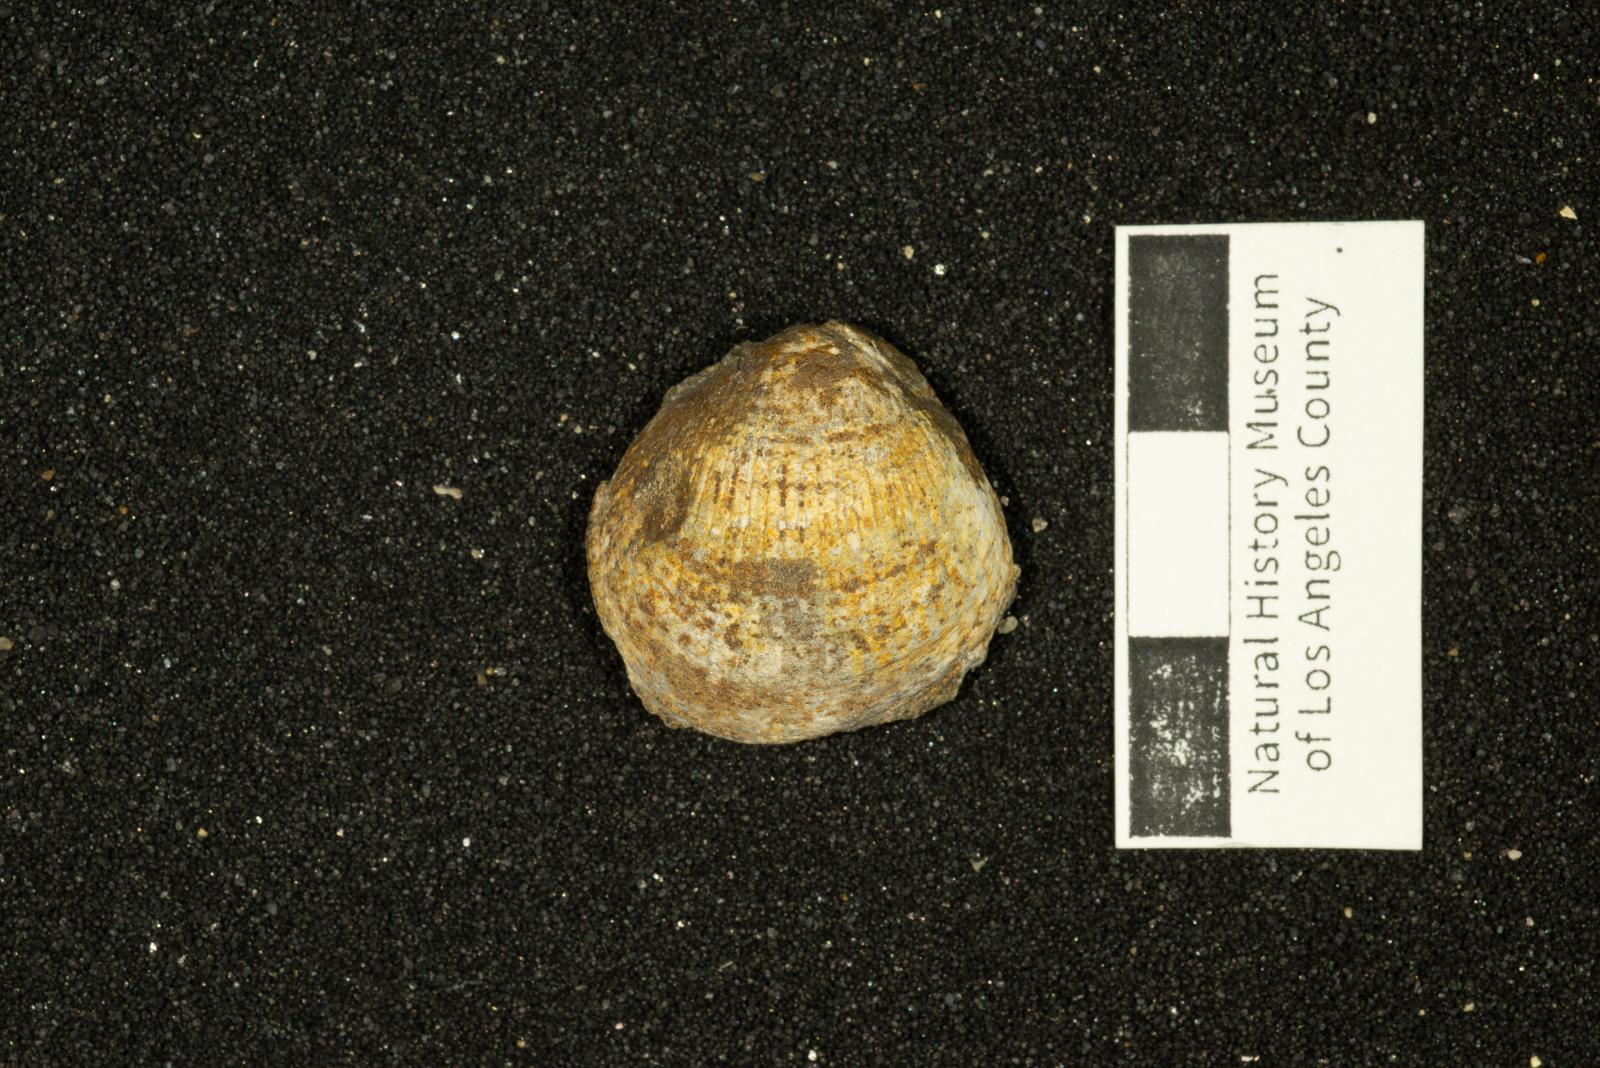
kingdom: Animalia
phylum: Mollusca
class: Bivalvia
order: Arcida
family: Glycymerididae
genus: Glycymerita
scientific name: Glycymerita Axinaea veatchii
